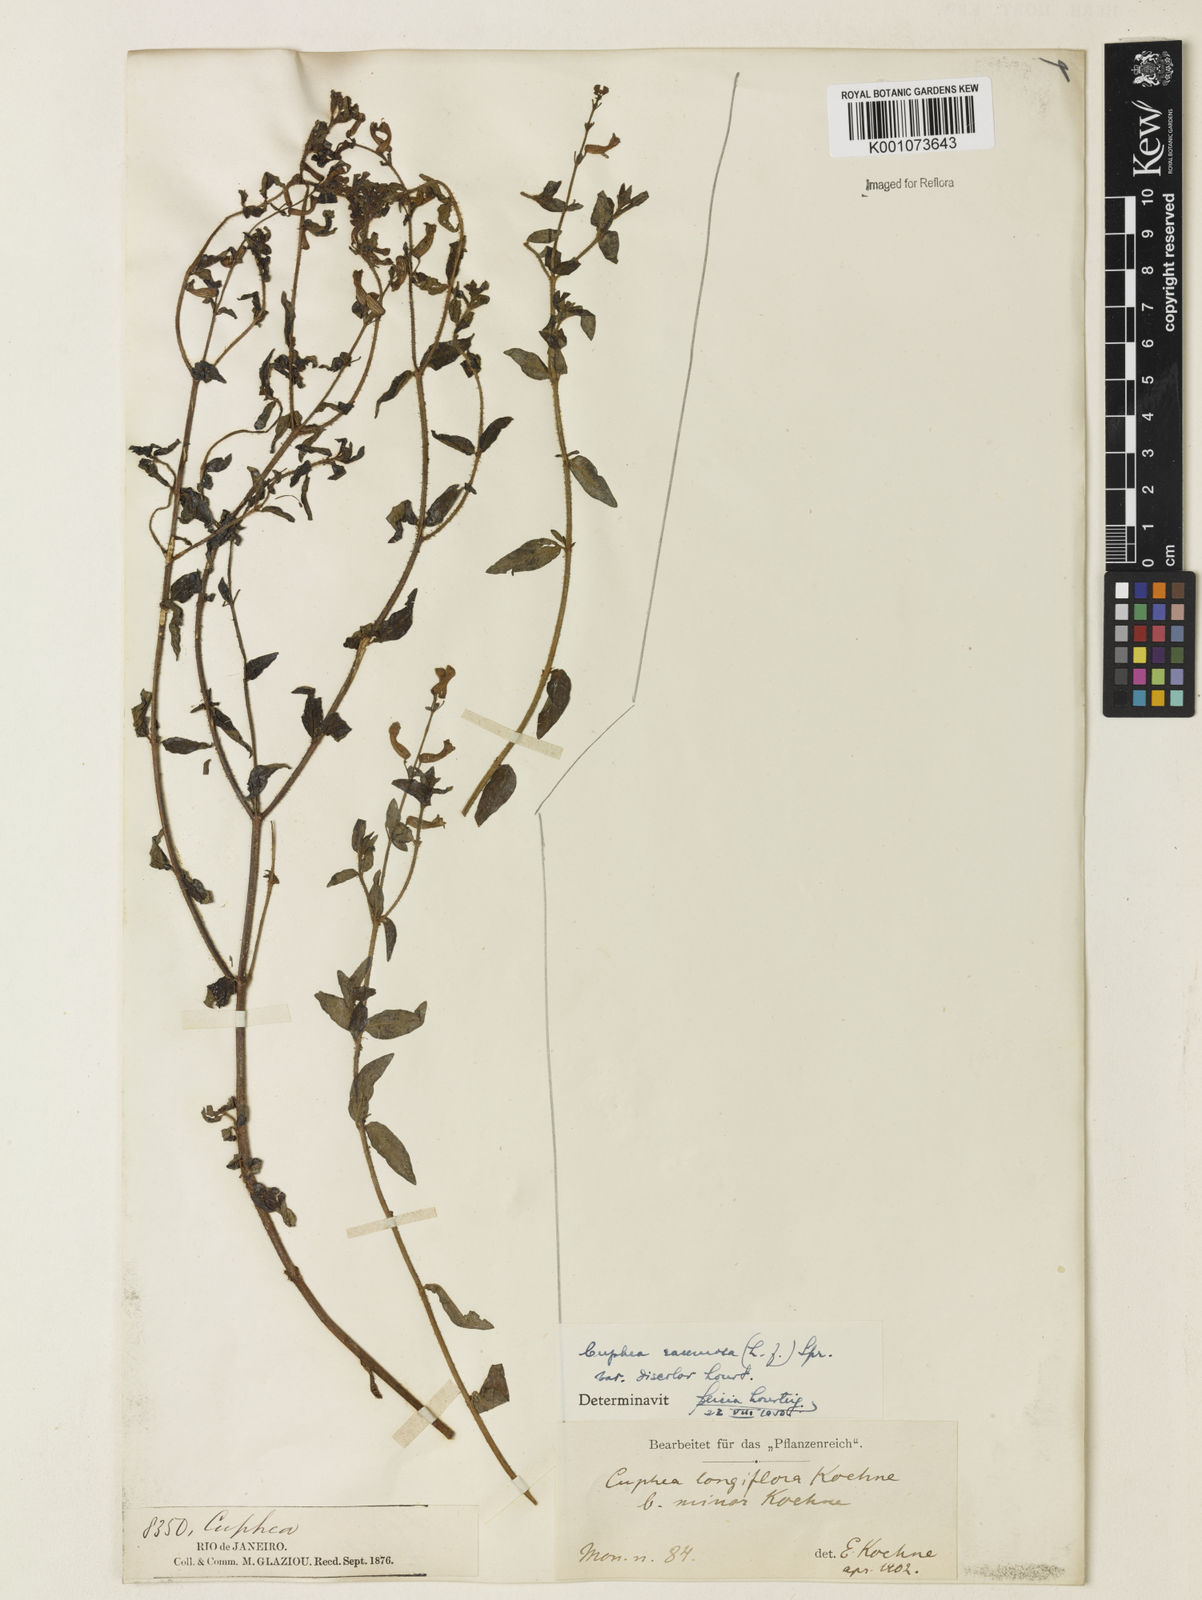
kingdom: Plantae
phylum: Tracheophyta
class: Magnoliopsida
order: Myrtales
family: Lythraceae
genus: Cuphea
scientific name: Cuphea racemosa
